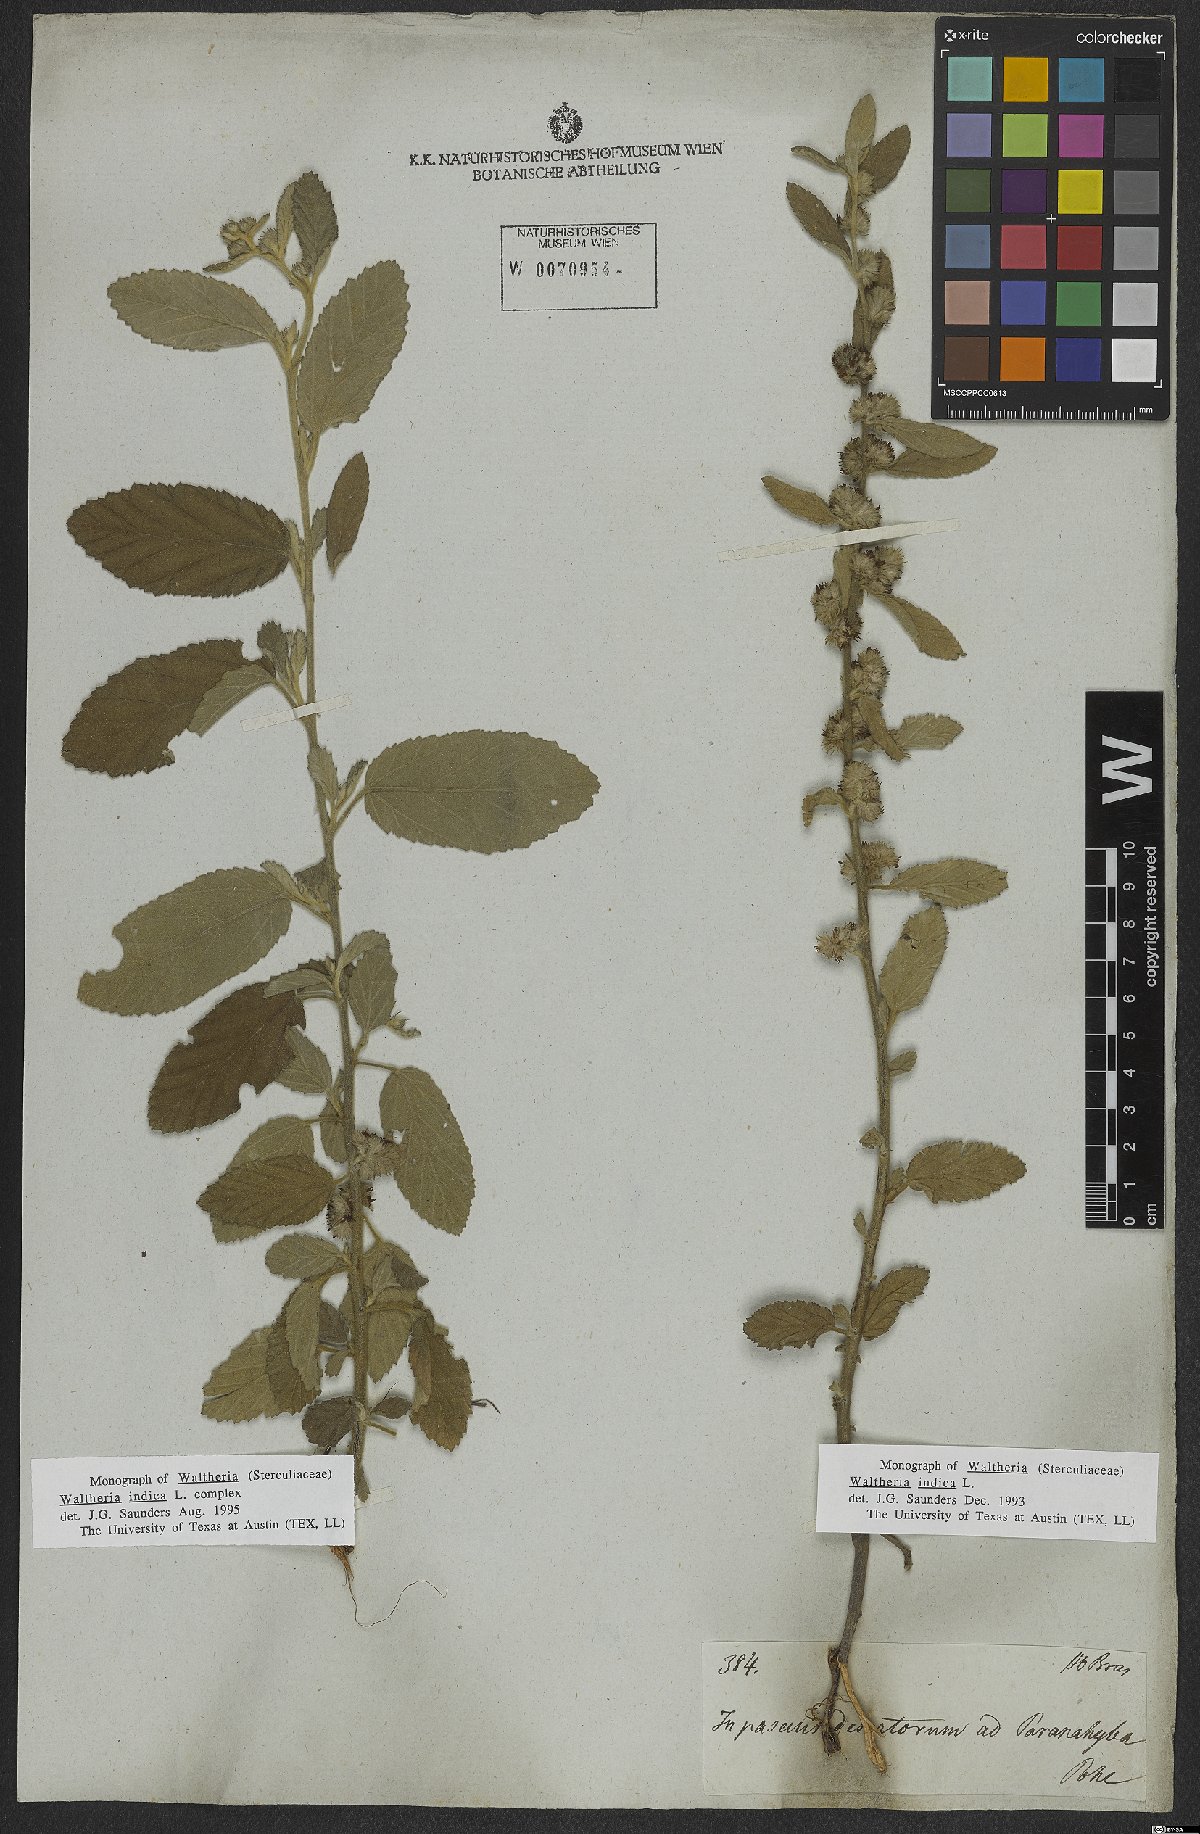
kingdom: Plantae
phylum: Tracheophyta
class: Magnoliopsida
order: Malvales
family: Malvaceae
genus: Waltheria
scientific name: Waltheria indica
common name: Leather-coat
